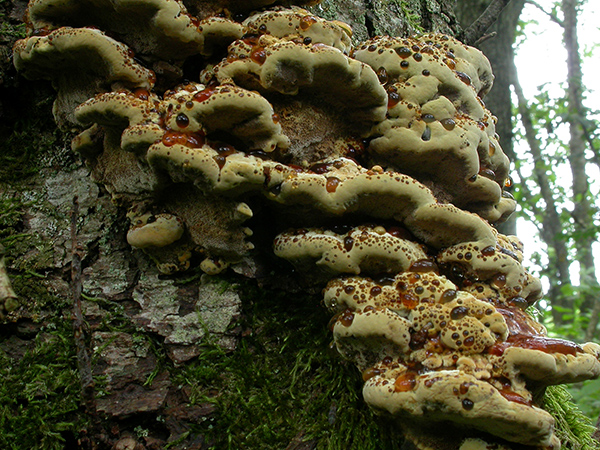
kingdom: Fungi
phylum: Basidiomycota
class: Agaricomycetes
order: Hymenochaetales
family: Hymenochaetaceae
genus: Xanthoporia
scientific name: Xanthoporia radiata
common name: elle-spejlporesvamp
